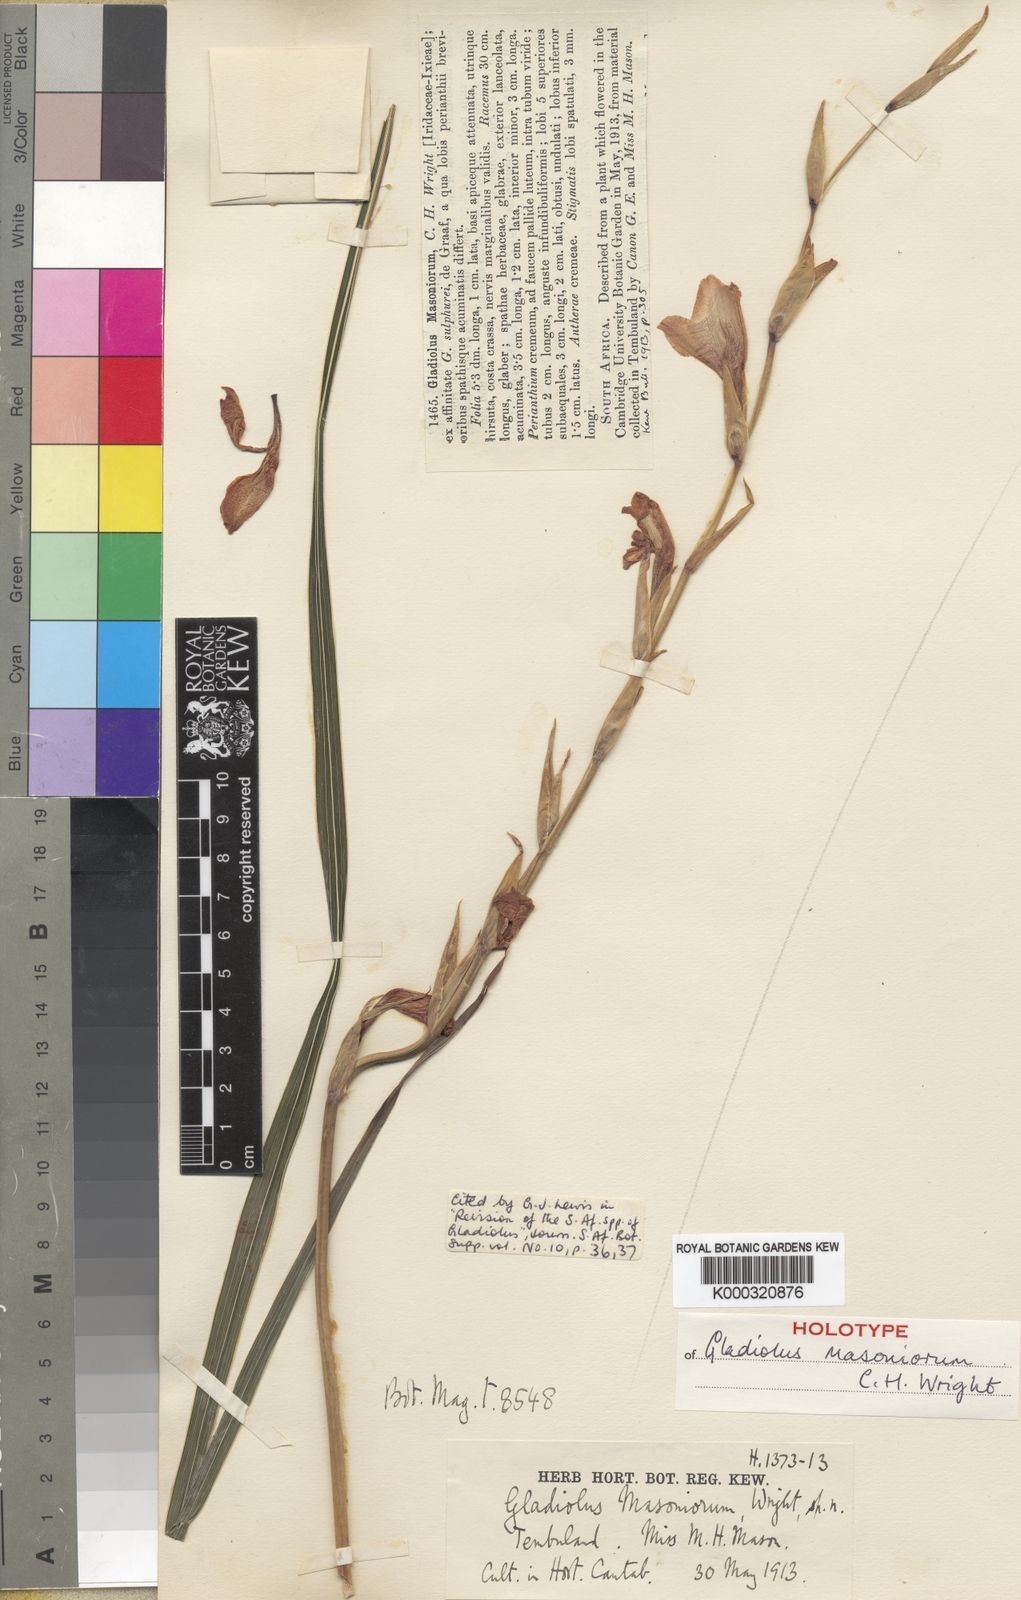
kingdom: Plantae
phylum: Tracheophyta
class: Liliopsida
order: Asparagales
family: Iridaceae
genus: Gladiolus
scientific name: Gladiolus ochroleucus
